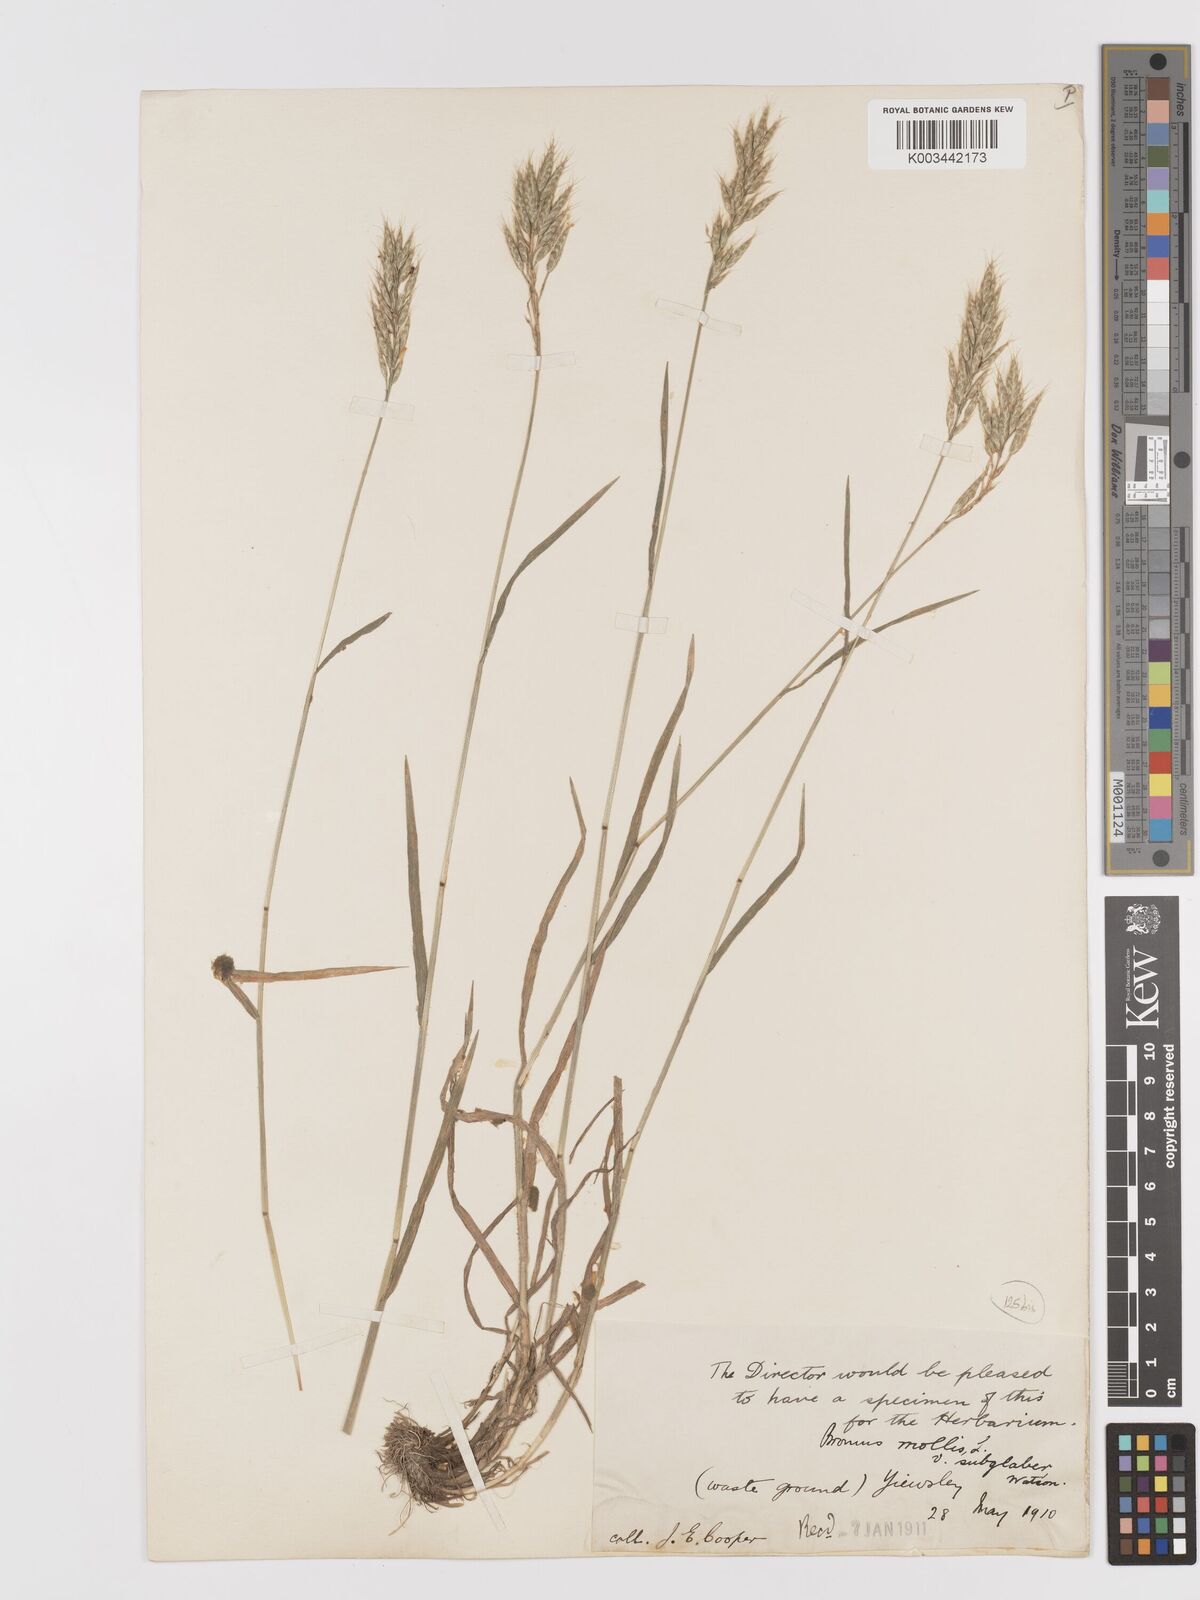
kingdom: Plantae
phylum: Tracheophyta
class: Liliopsida
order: Poales
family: Poaceae
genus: Bromus
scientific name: Bromus lepidus
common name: Slender soft-brome
